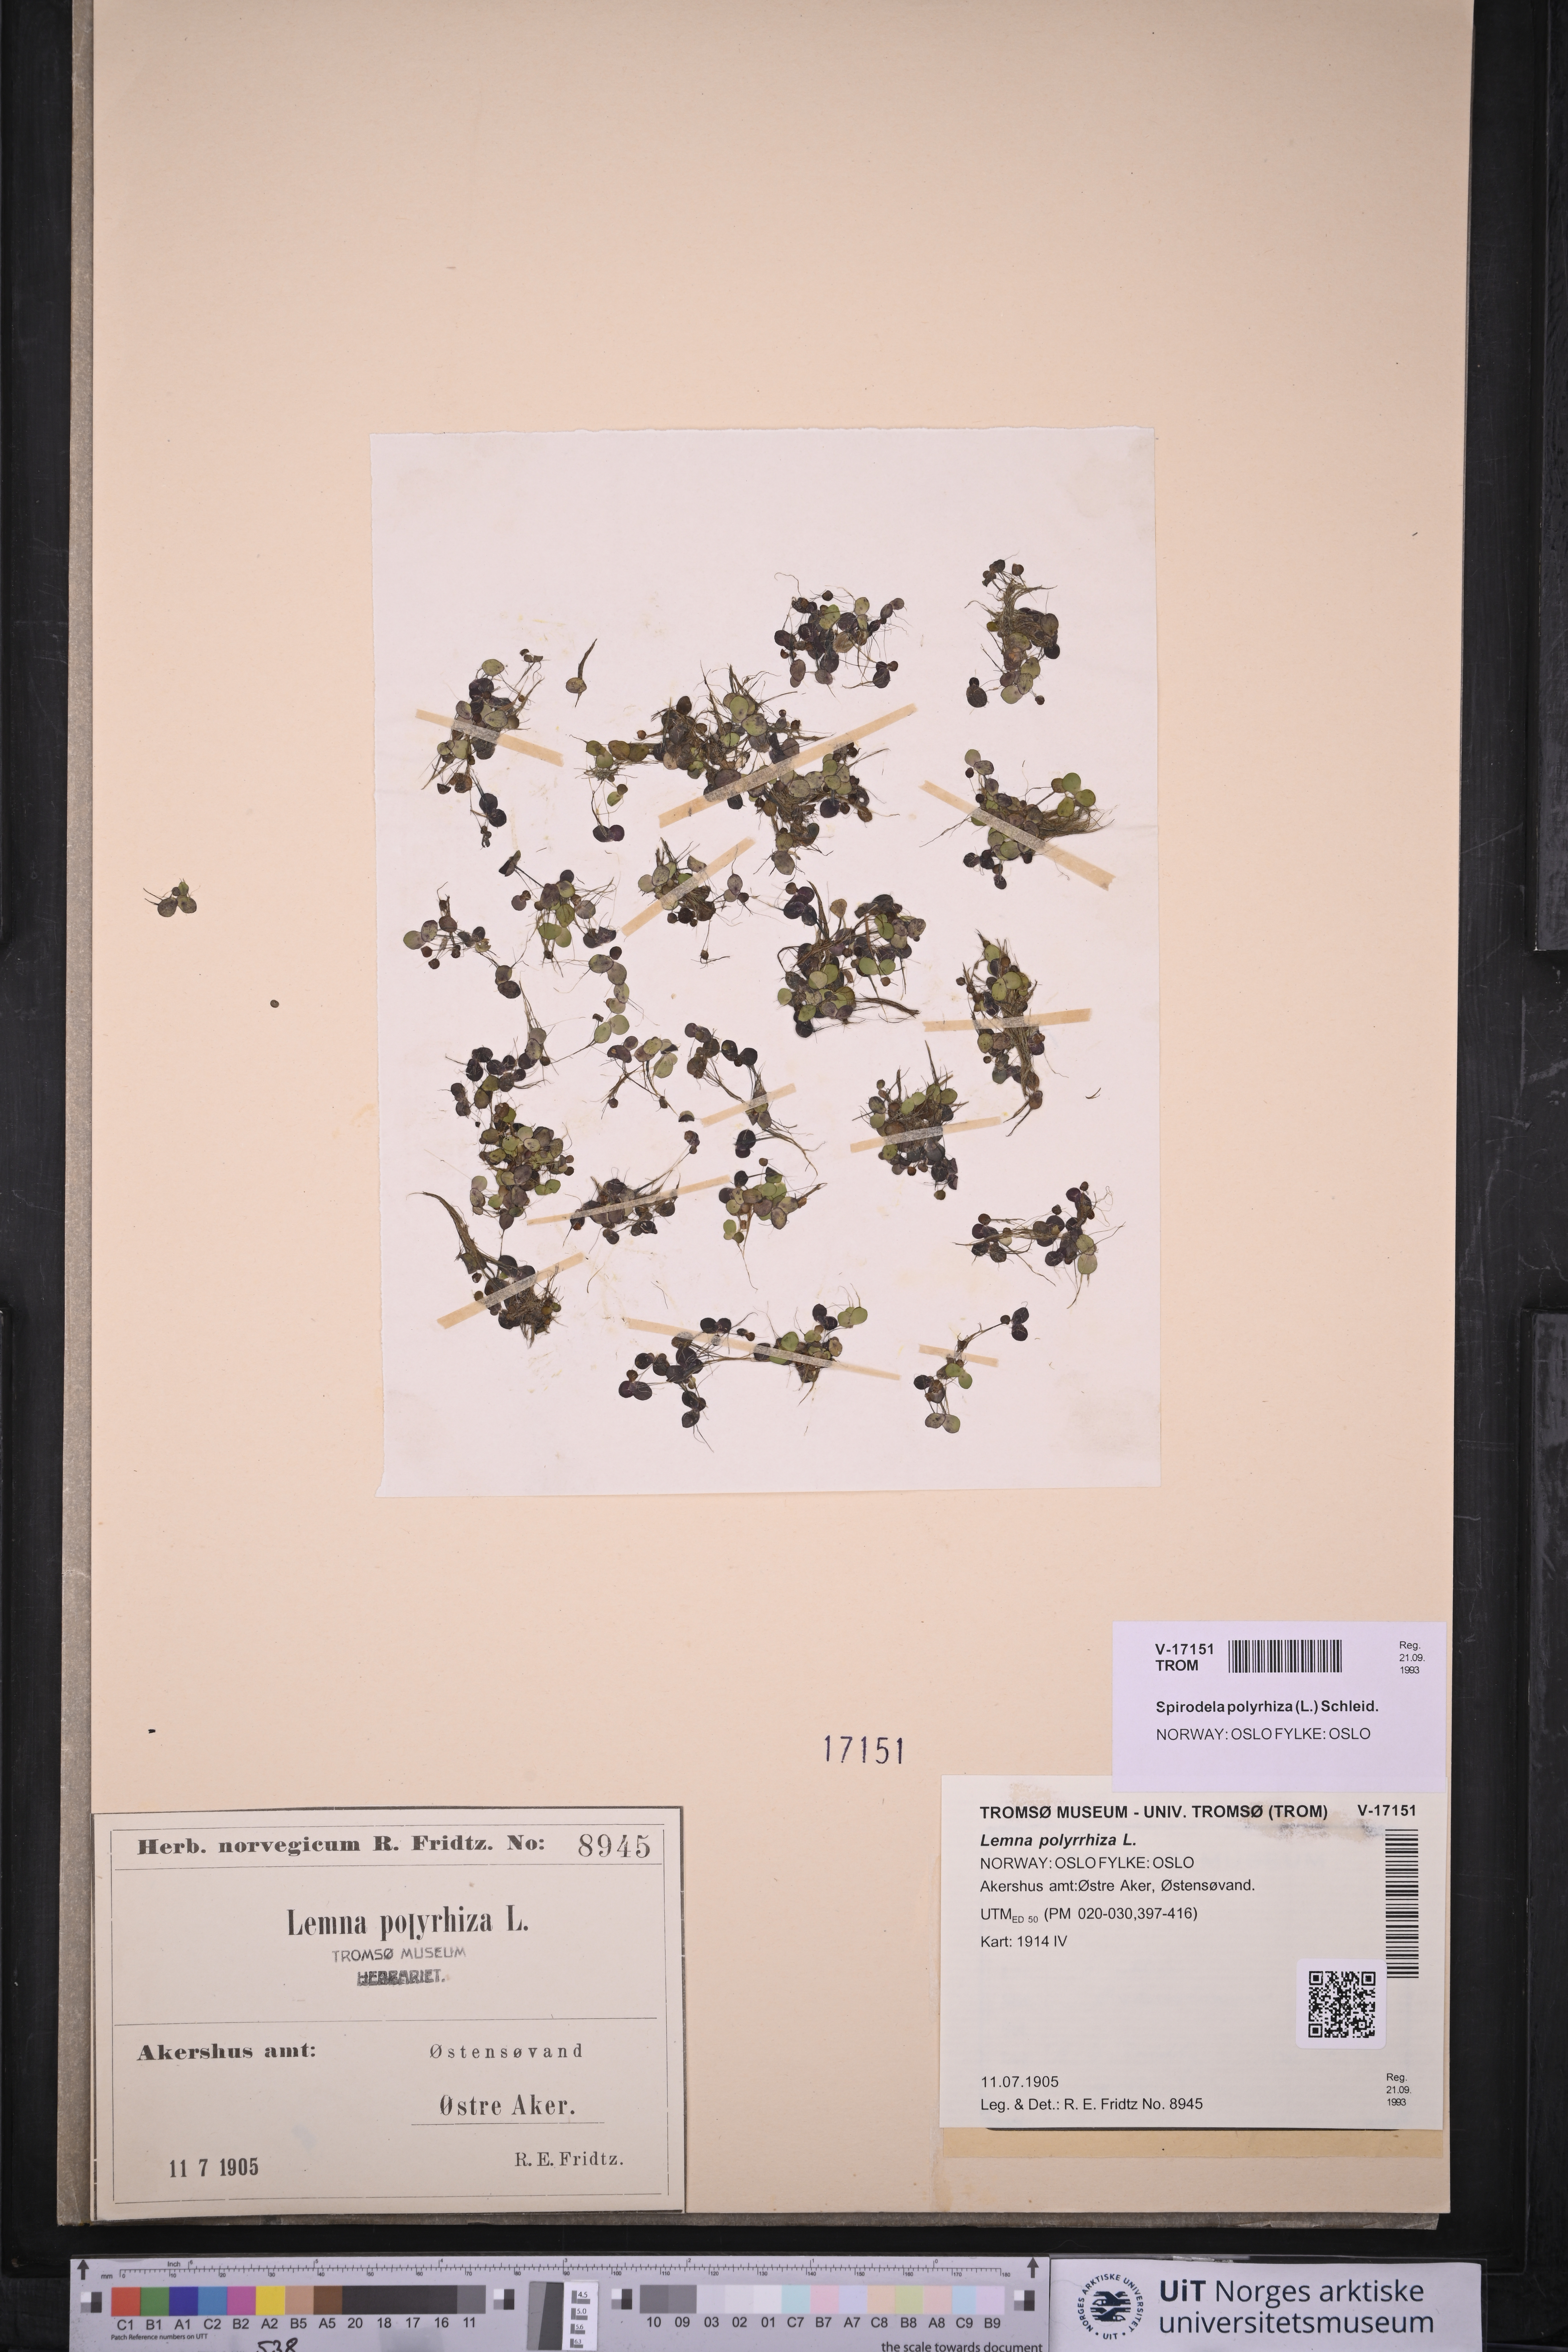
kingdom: Plantae
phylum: Tracheophyta
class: Liliopsida
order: Alismatales
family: Araceae
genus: Spirodela
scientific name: Spirodela polyrhiza
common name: Great duckweed
